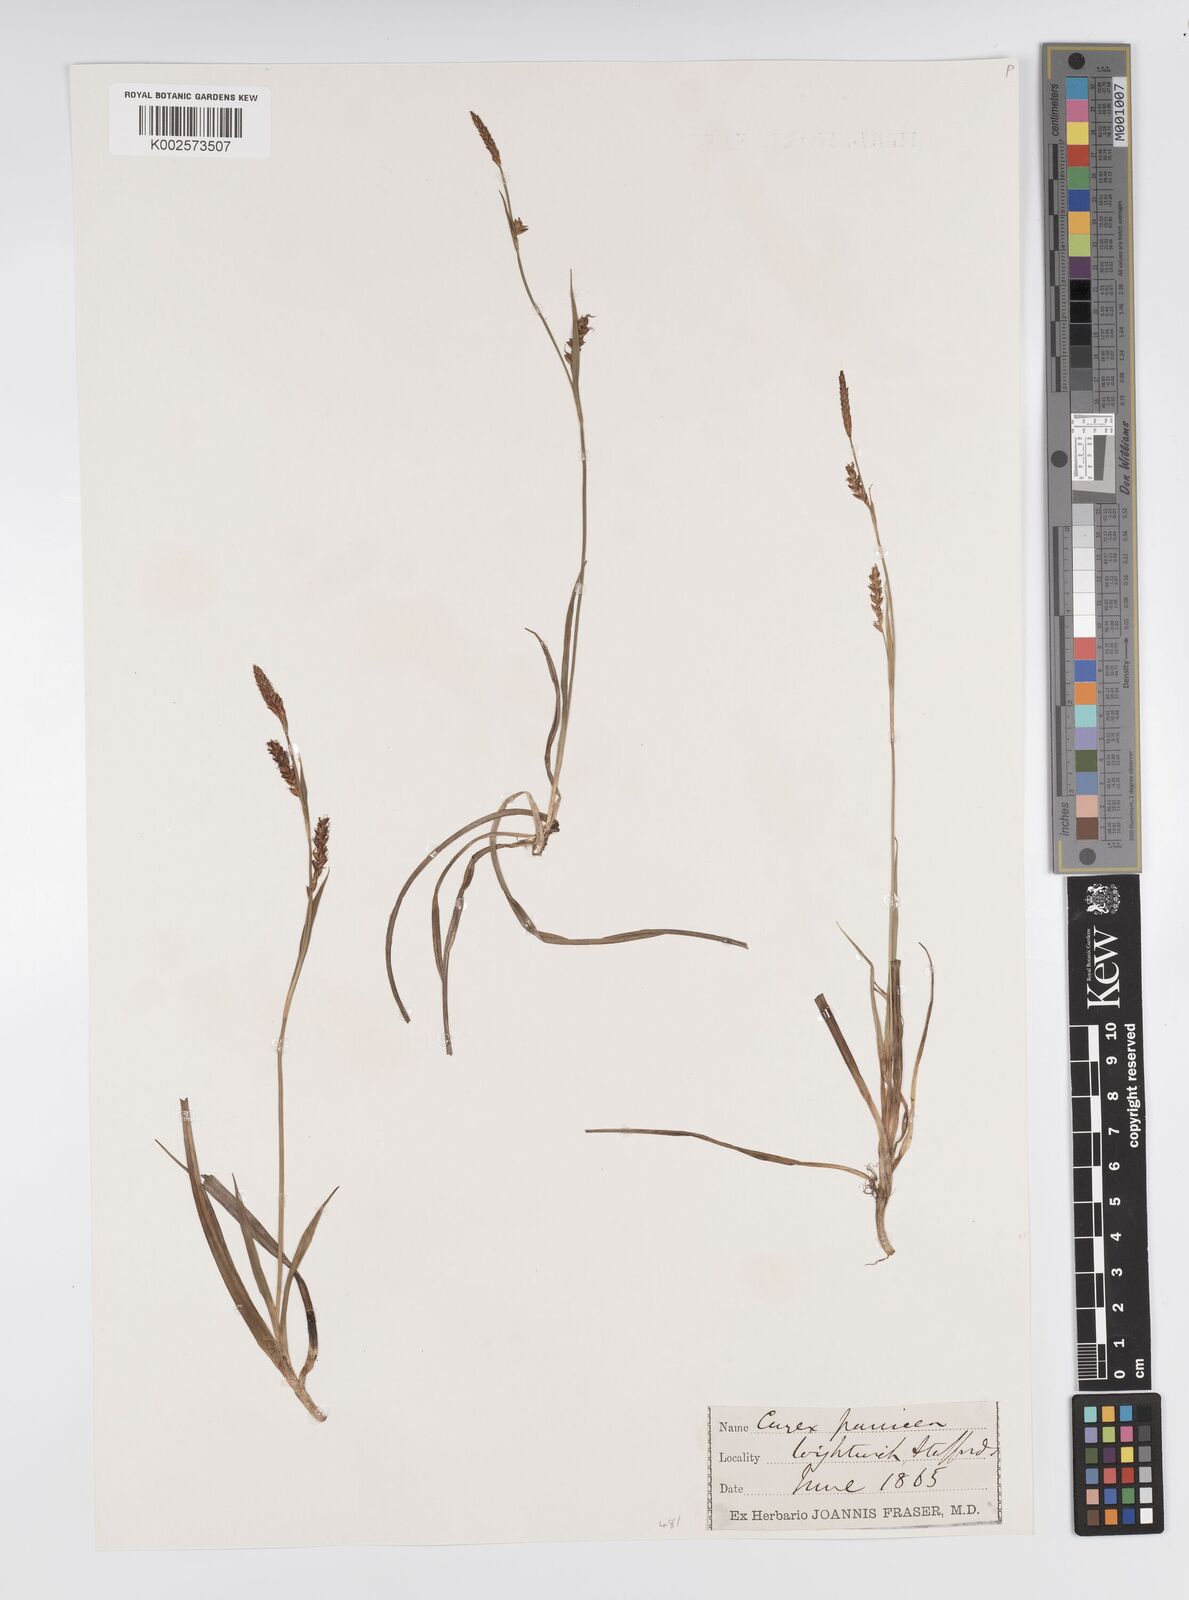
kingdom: Plantae
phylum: Tracheophyta
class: Liliopsida
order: Poales
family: Cyperaceae
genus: Carex
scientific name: Carex panicea
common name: Carnation sedge
